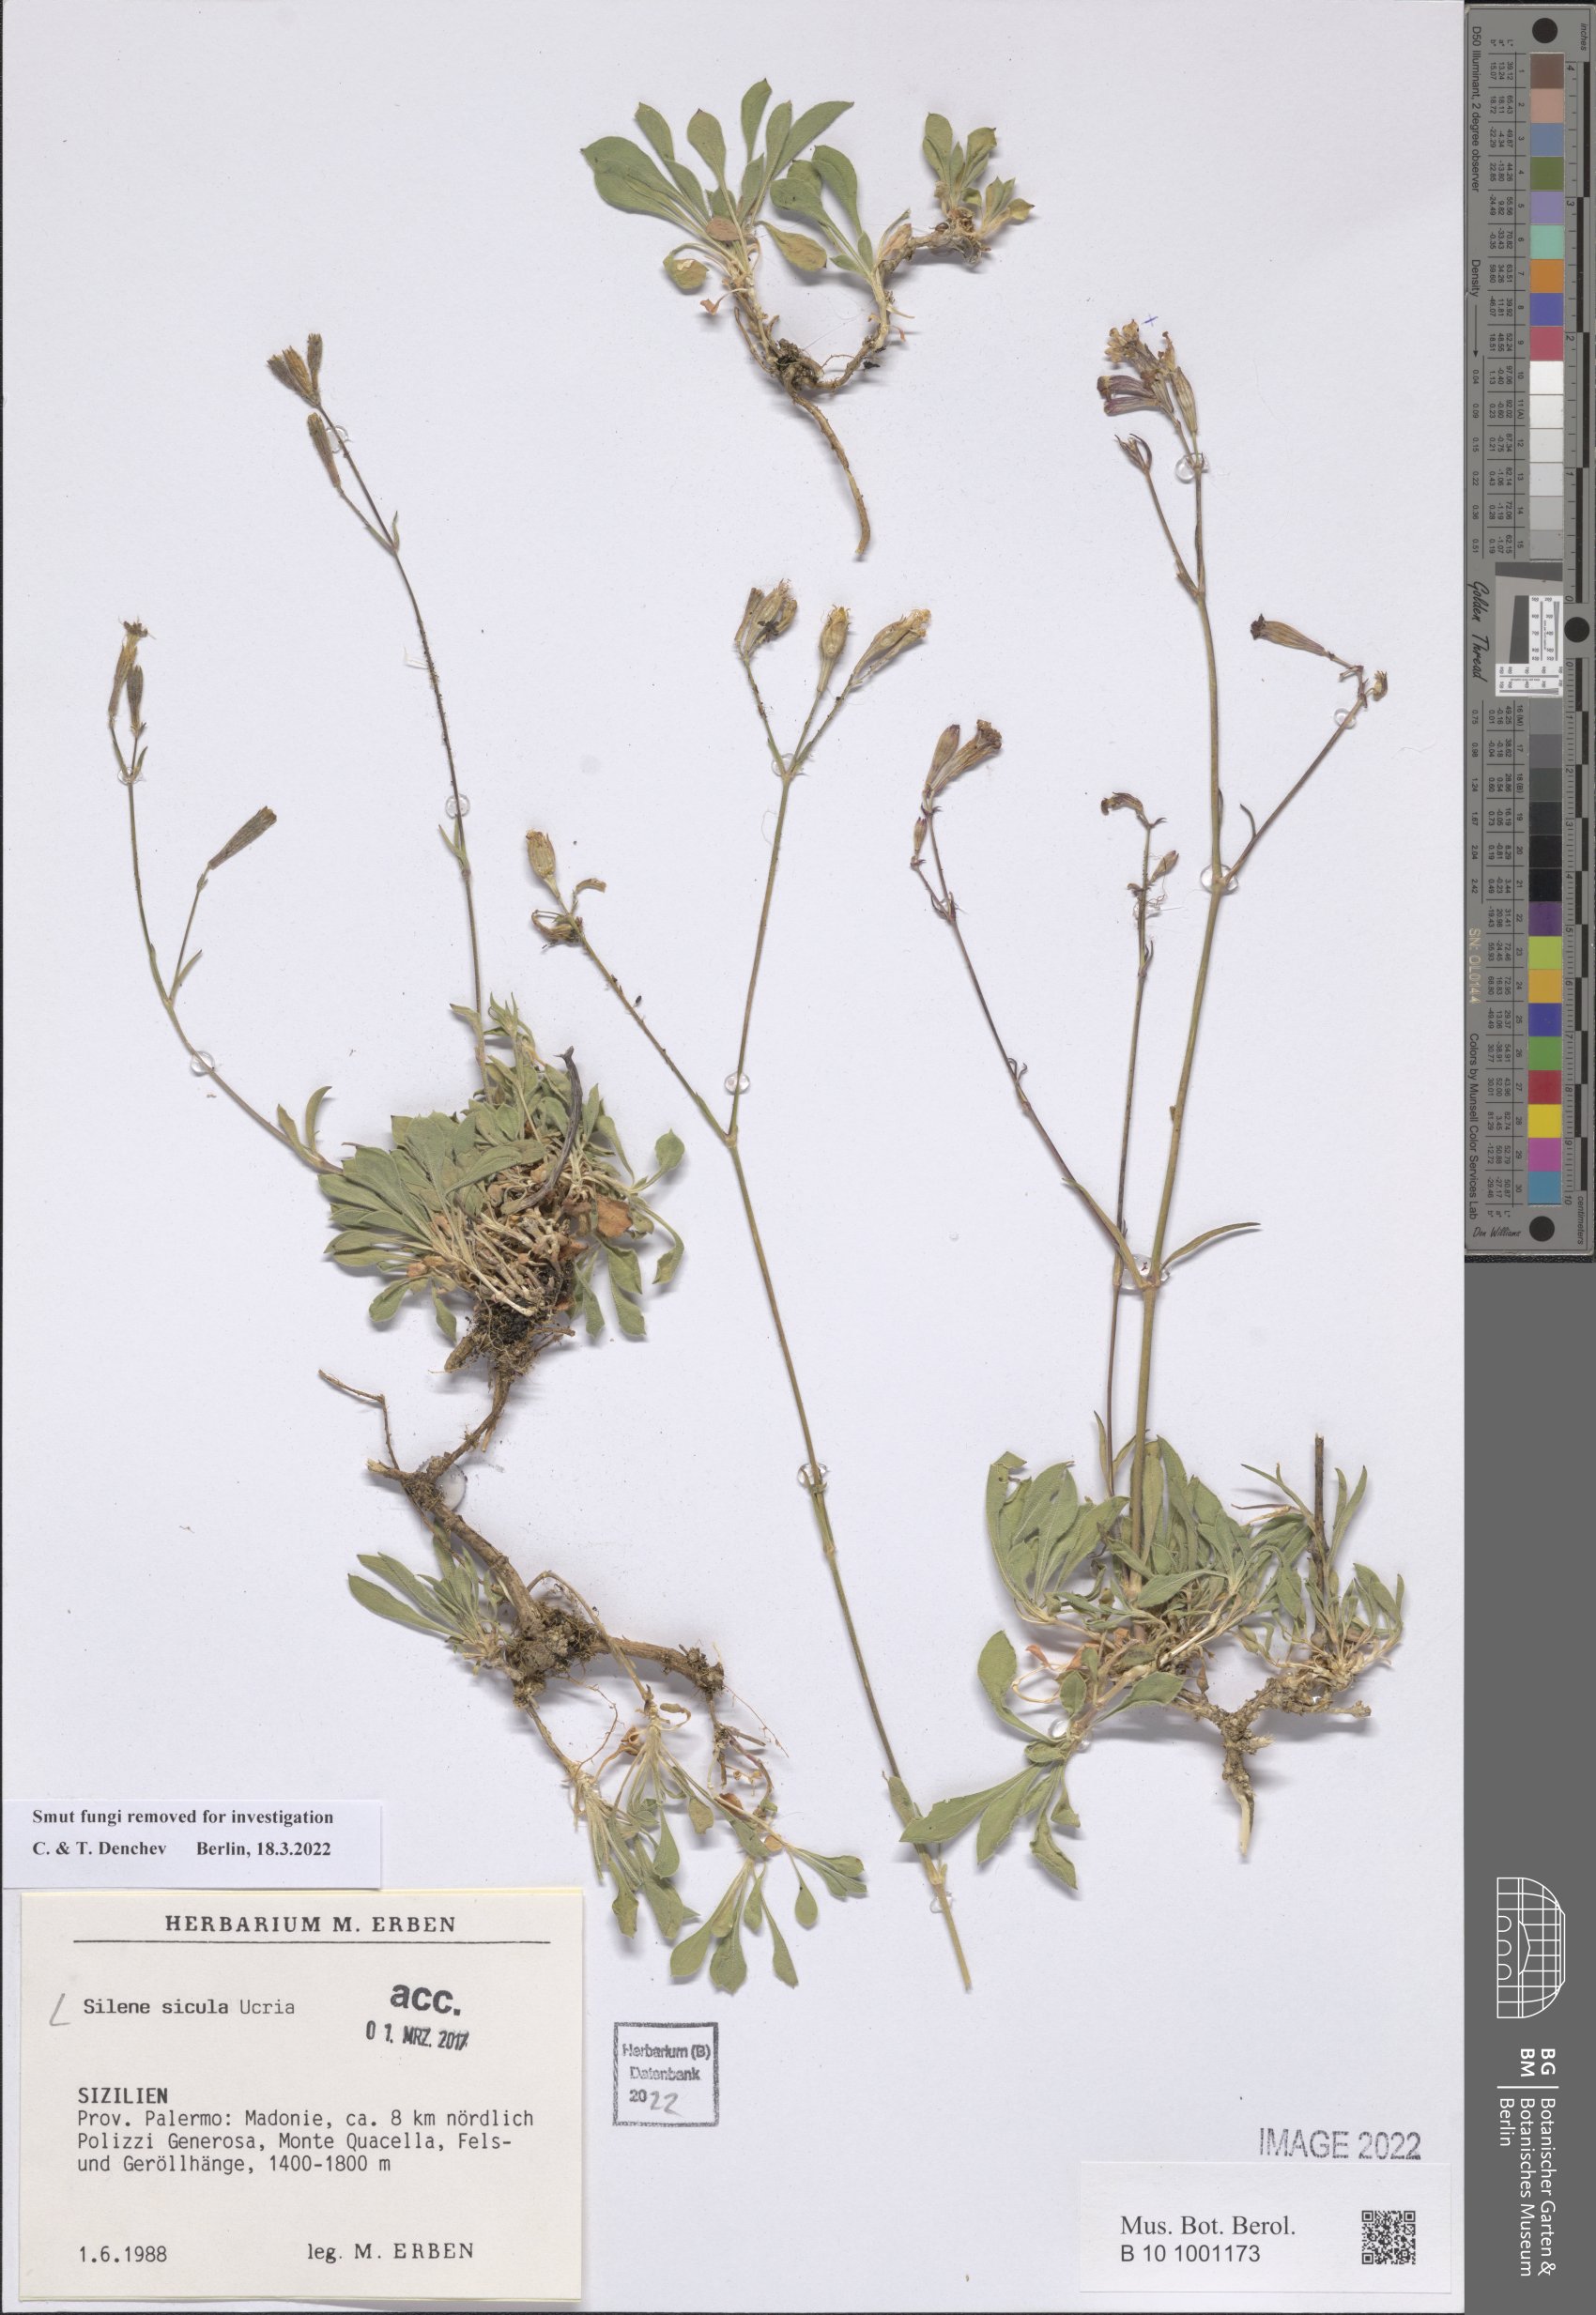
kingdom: Plantae
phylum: Tracheophyta
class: Magnoliopsida
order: Caryophyllales
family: Caryophyllaceae
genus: Silene
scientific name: Silene italica
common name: Italian catchfly
